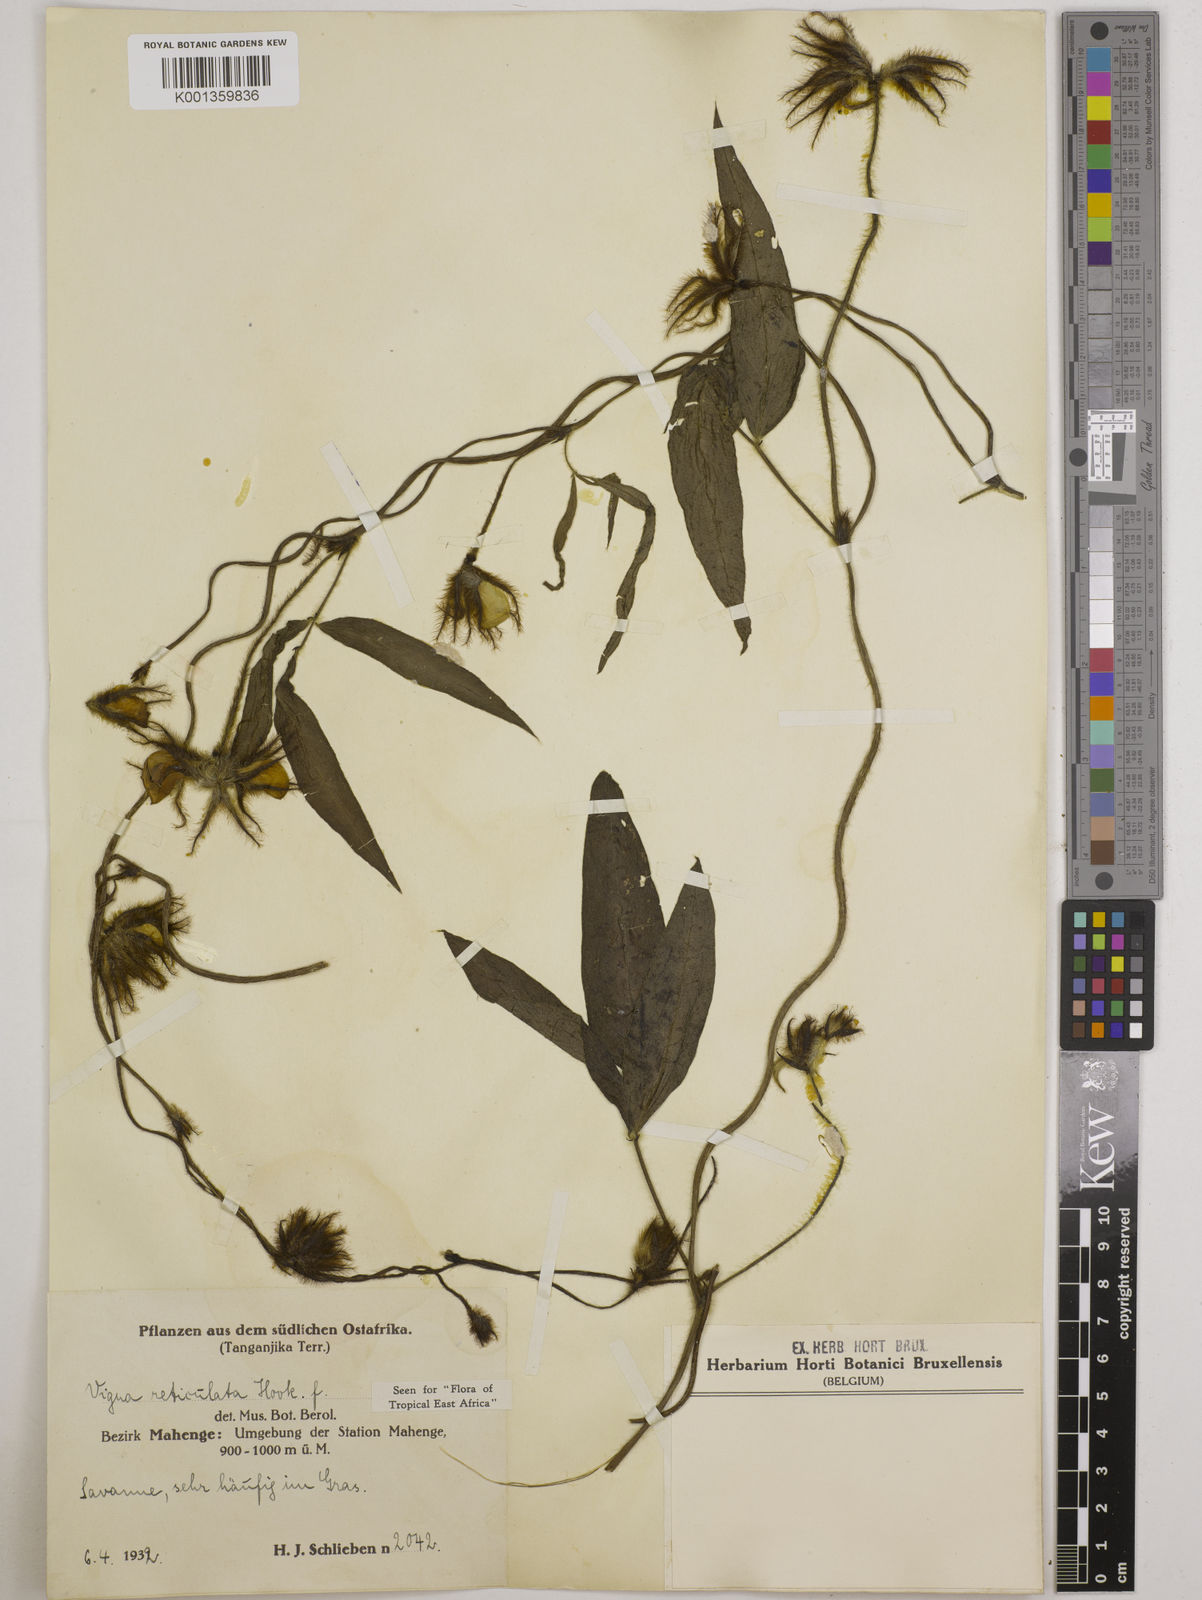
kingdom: Plantae
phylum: Tracheophyta
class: Magnoliopsida
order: Fabales
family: Fabaceae
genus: Vigna
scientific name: Vigna reticulata
